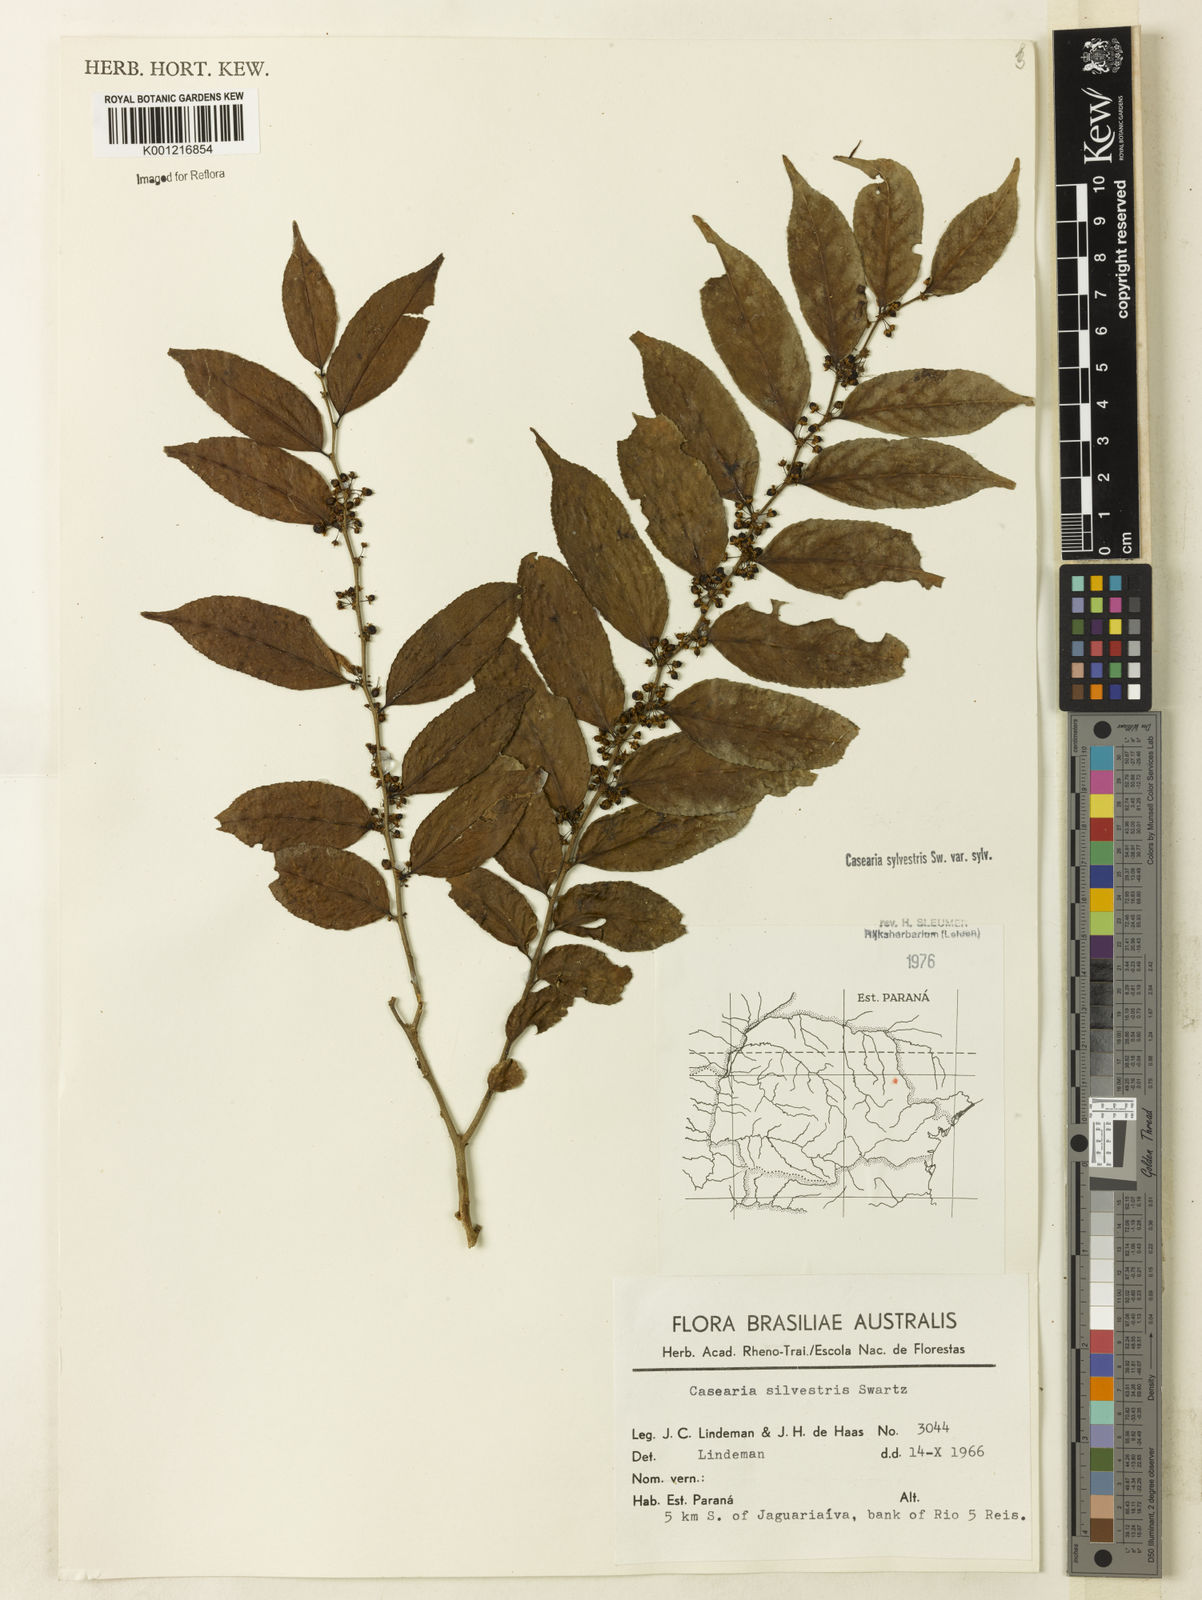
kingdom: Plantae
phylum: Tracheophyta
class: Magnoliopsida
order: Malpighiales
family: Salicaceae
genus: Casearia
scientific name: Casearia sylvestris
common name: Wild sage
